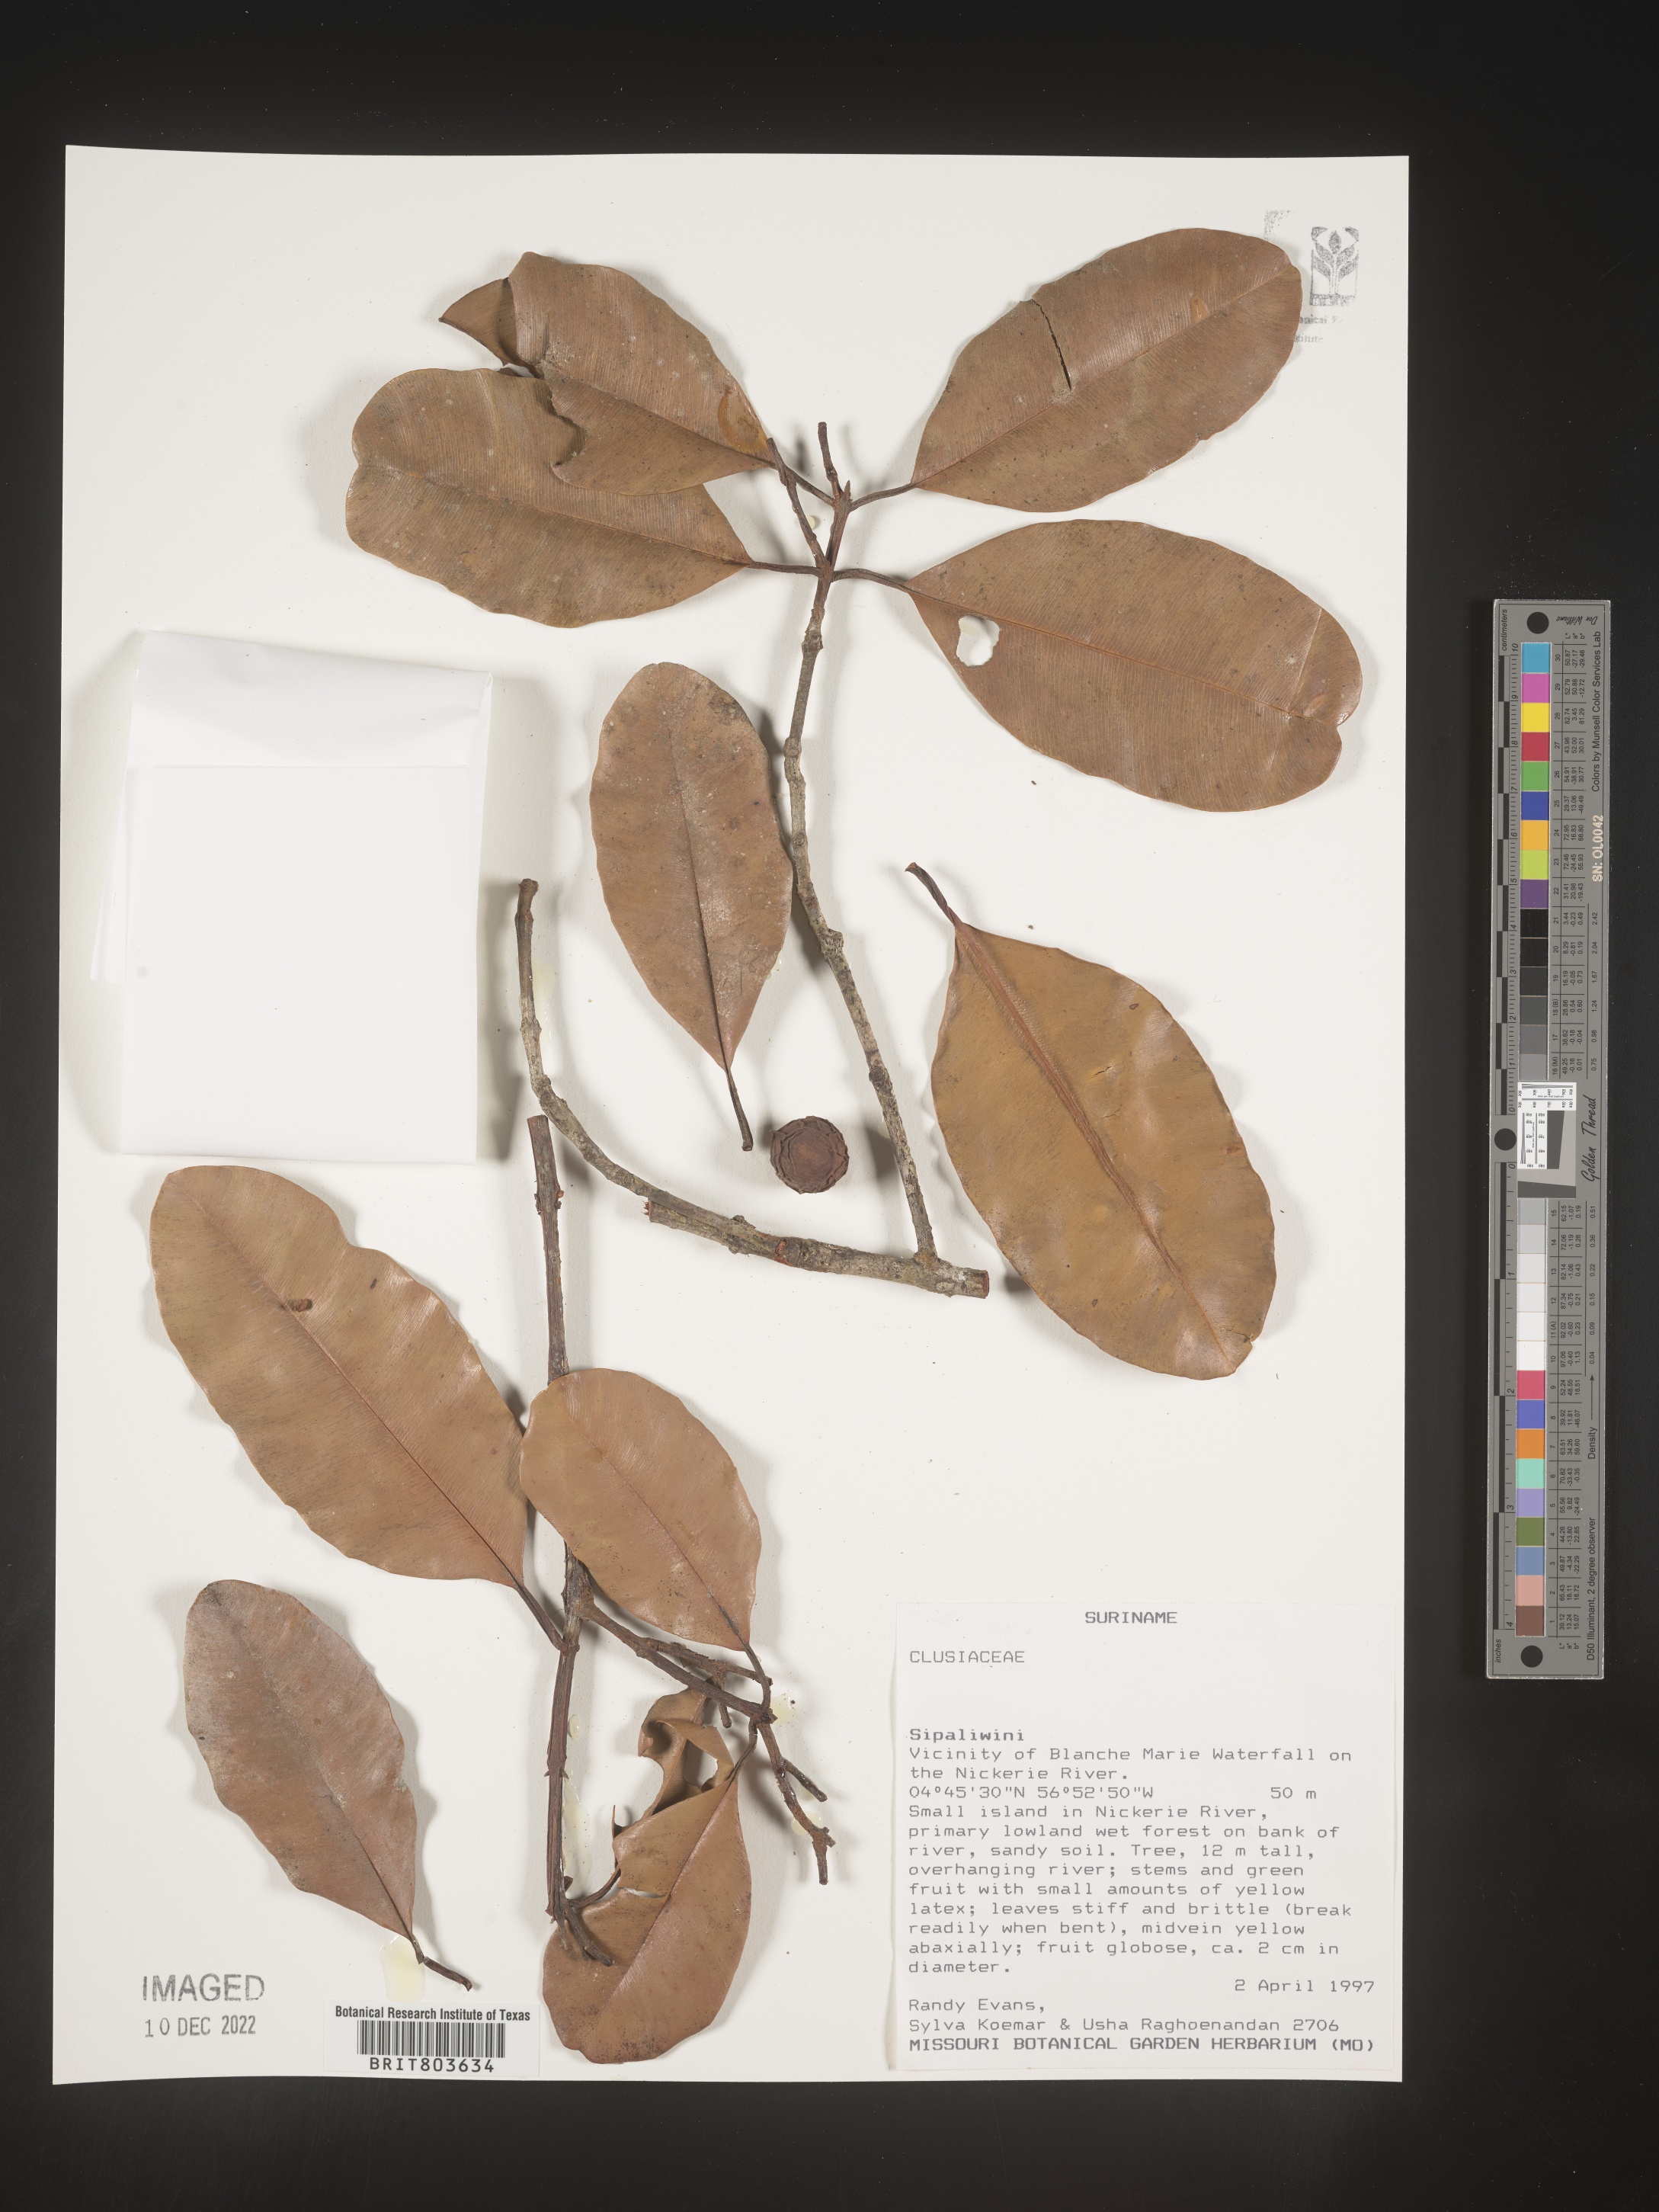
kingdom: Plantae
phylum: Tracheophyta
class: Magnoliopsida
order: Malpighiales
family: Clusiaceae
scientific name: Clusiaceae
